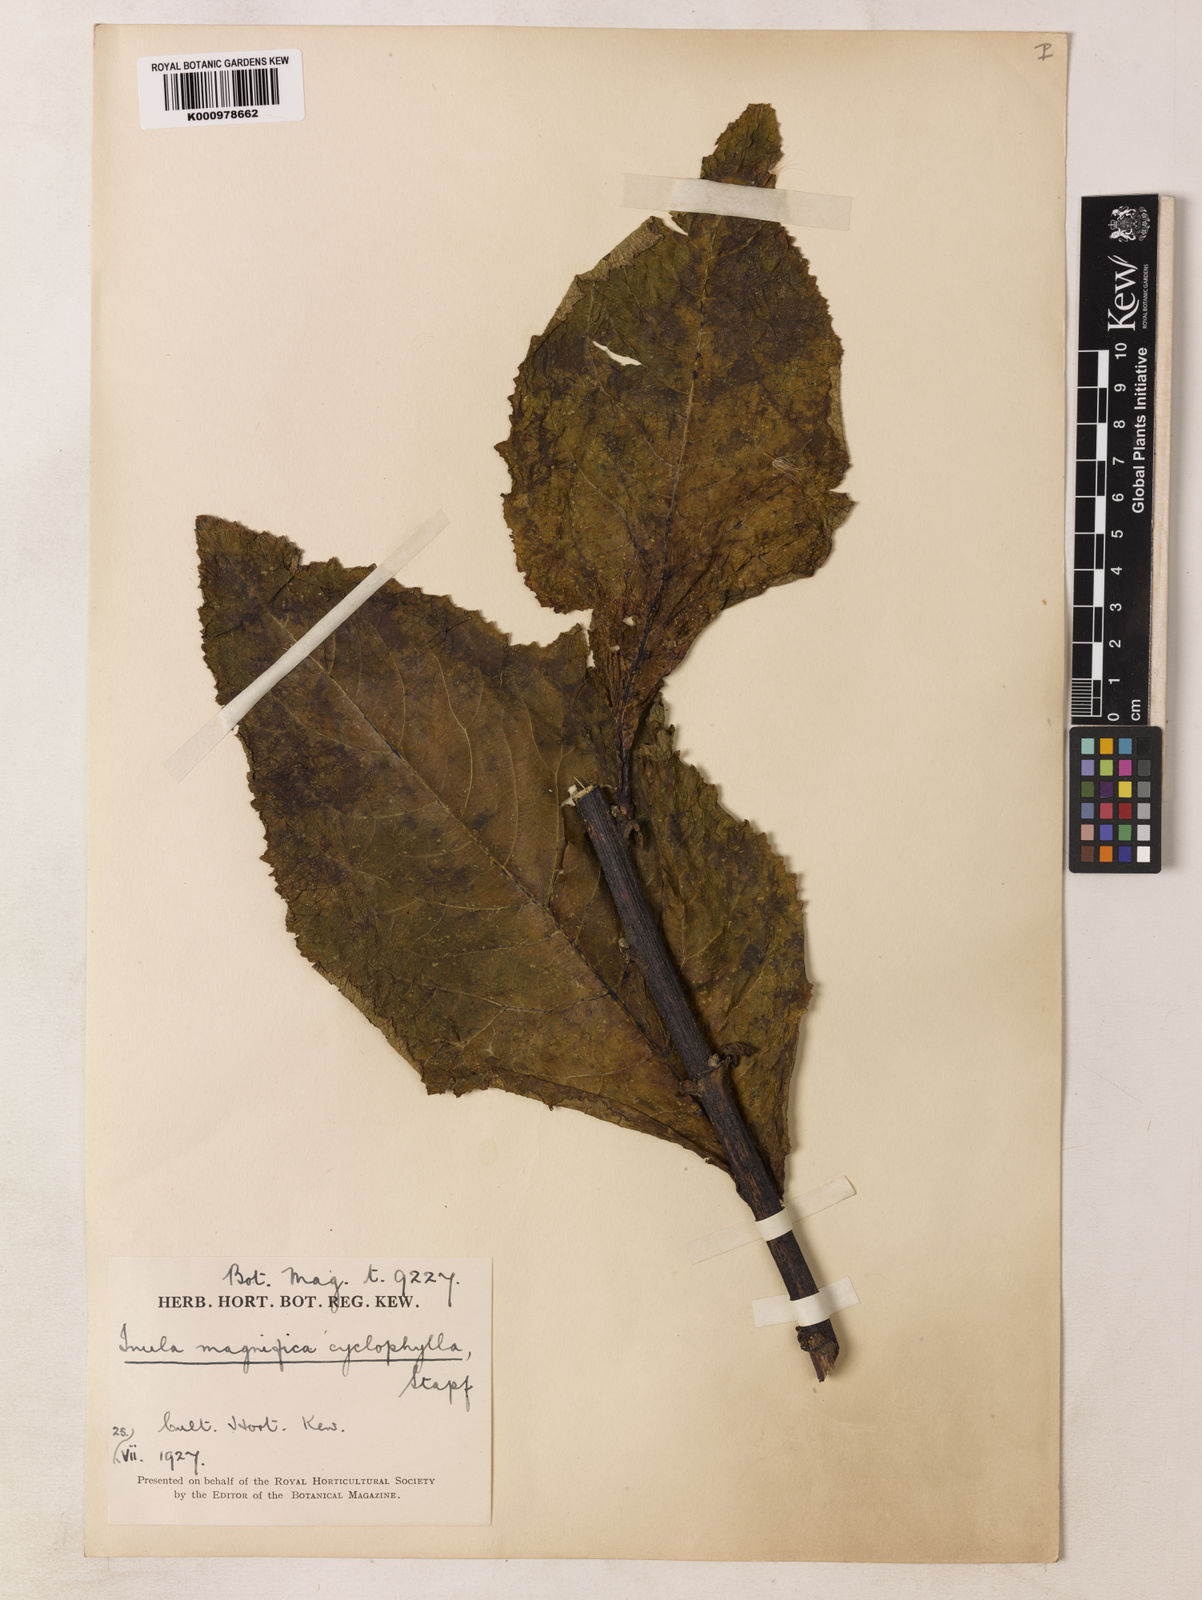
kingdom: Plantae
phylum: Tracheophyta
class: Magnoliopsida
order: Asterales
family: Asteraceae
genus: Inula
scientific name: Inula magnifica
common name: Giant fleabane
